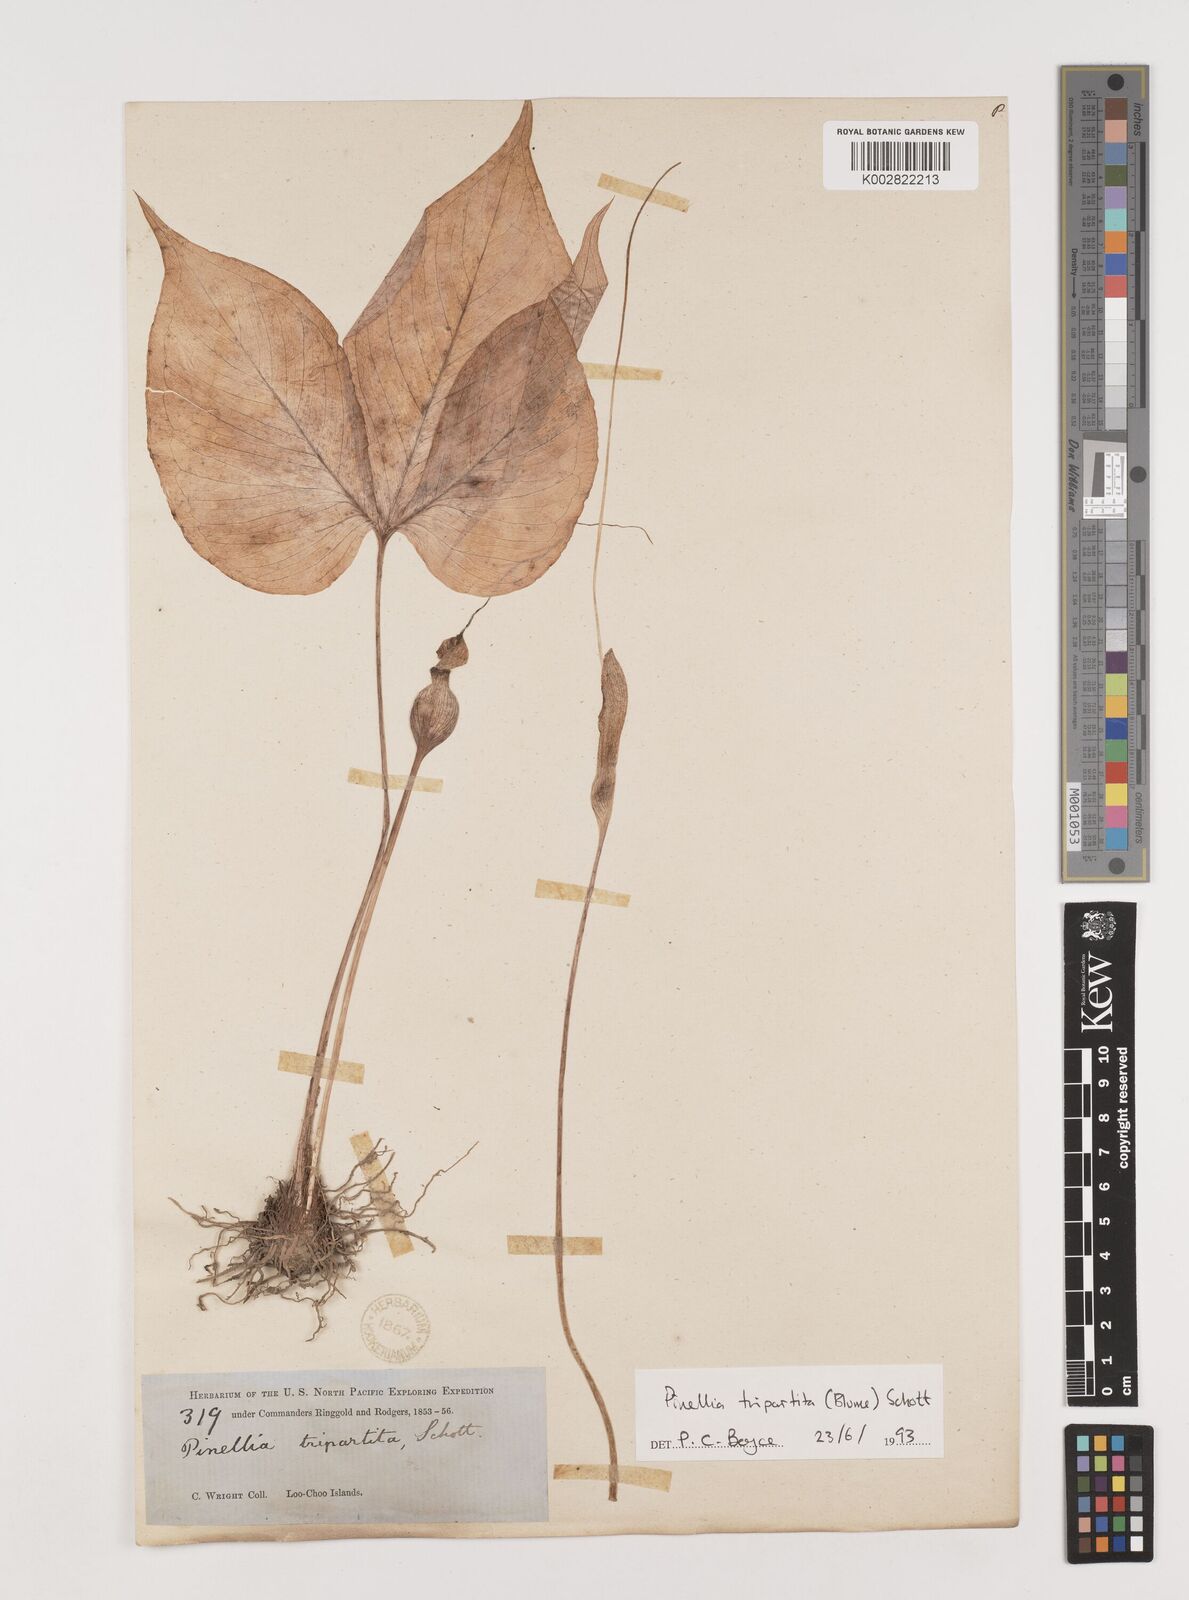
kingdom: Plantae
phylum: Tracheophyta
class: Liliopsida
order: Alismatales
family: Araceae
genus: Pinellia
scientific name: Pinellia tripartita
